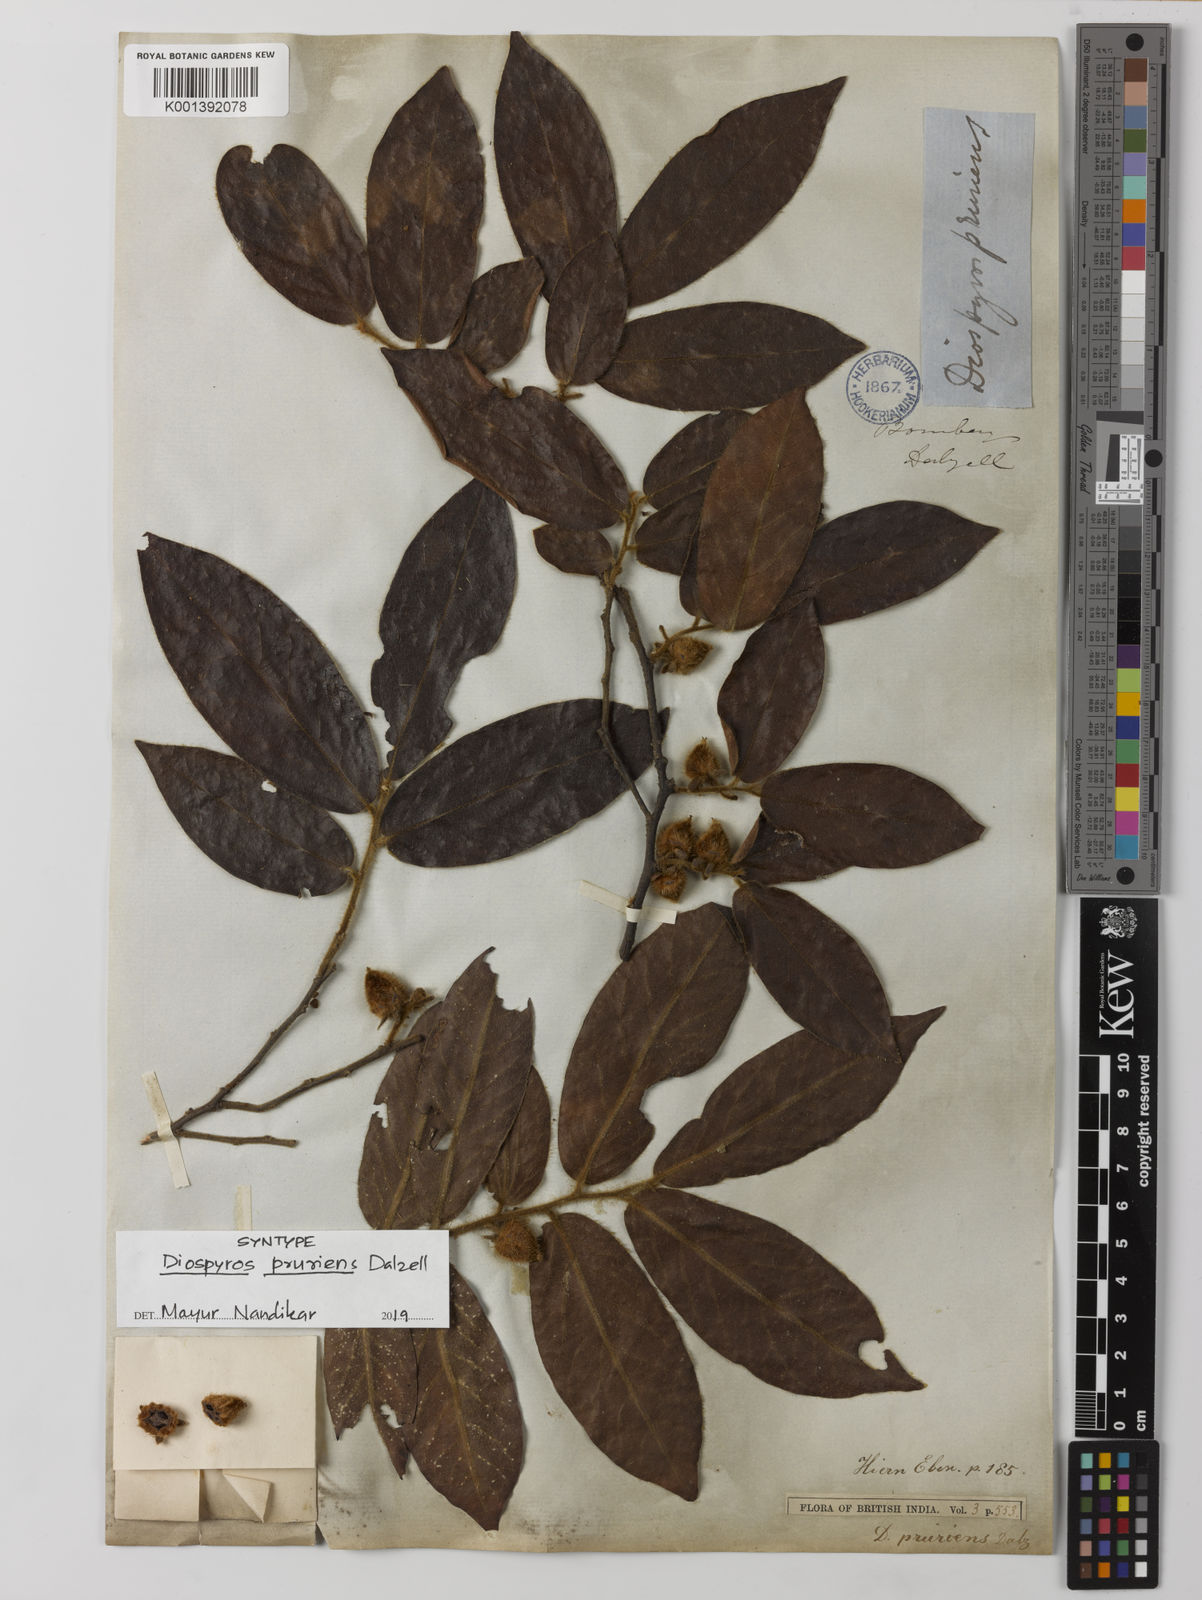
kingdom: Plantae
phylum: Tracheophyta
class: Magnoliopsida
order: Ericales
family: Ebenaceae
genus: Diospyros
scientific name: Diospyros pruriens
